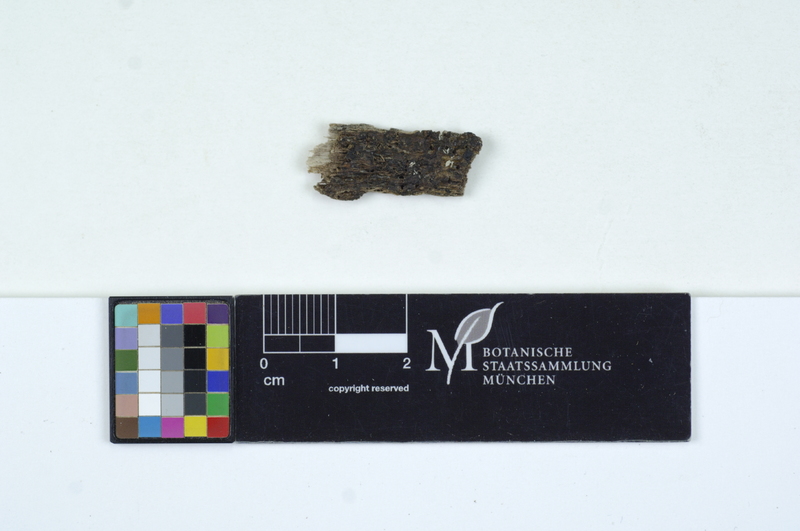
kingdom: Fungi
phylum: Basidiomycota
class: Tremellomycetes
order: Tremellales
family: Exidiaceae
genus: Exidiopsis
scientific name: Exidiopsis effusa
